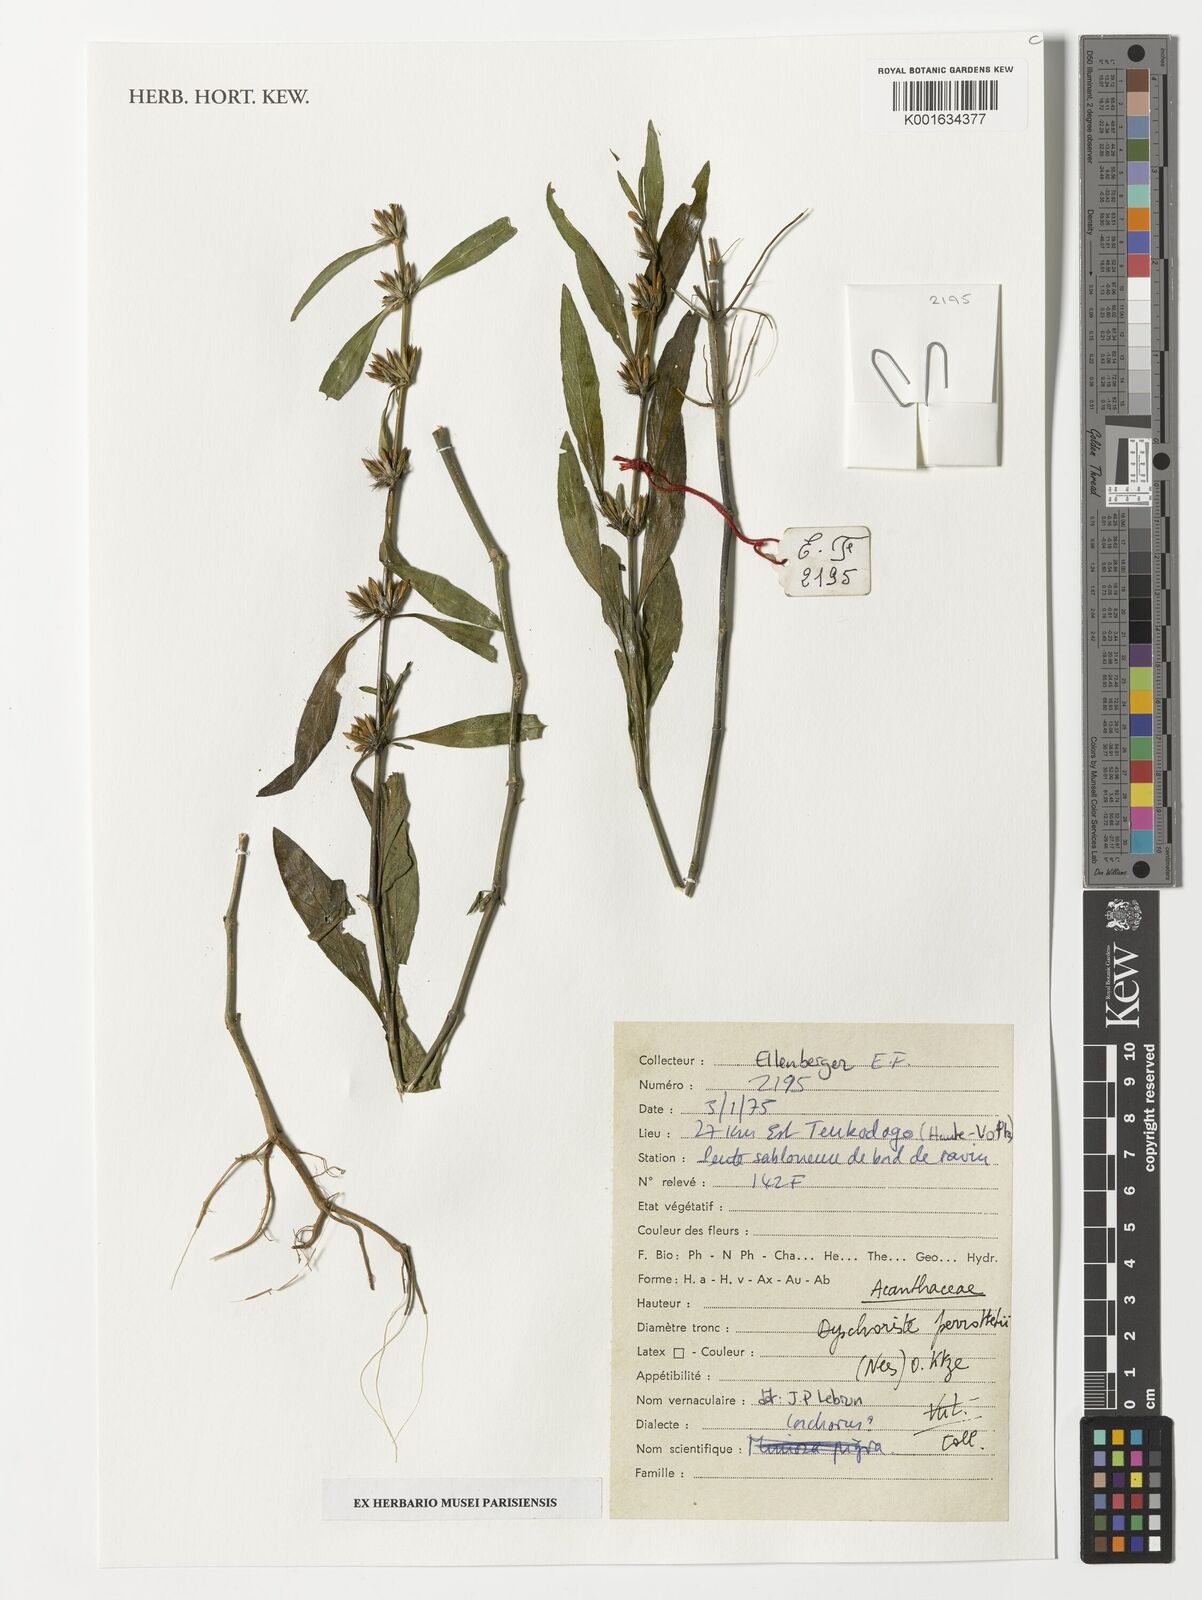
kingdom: Plantae
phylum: Tracheophyta
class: Magnoliopsida
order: Lamiales
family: Acanthaceae
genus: Dyschoriste
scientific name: Dyschoriste nagchana
